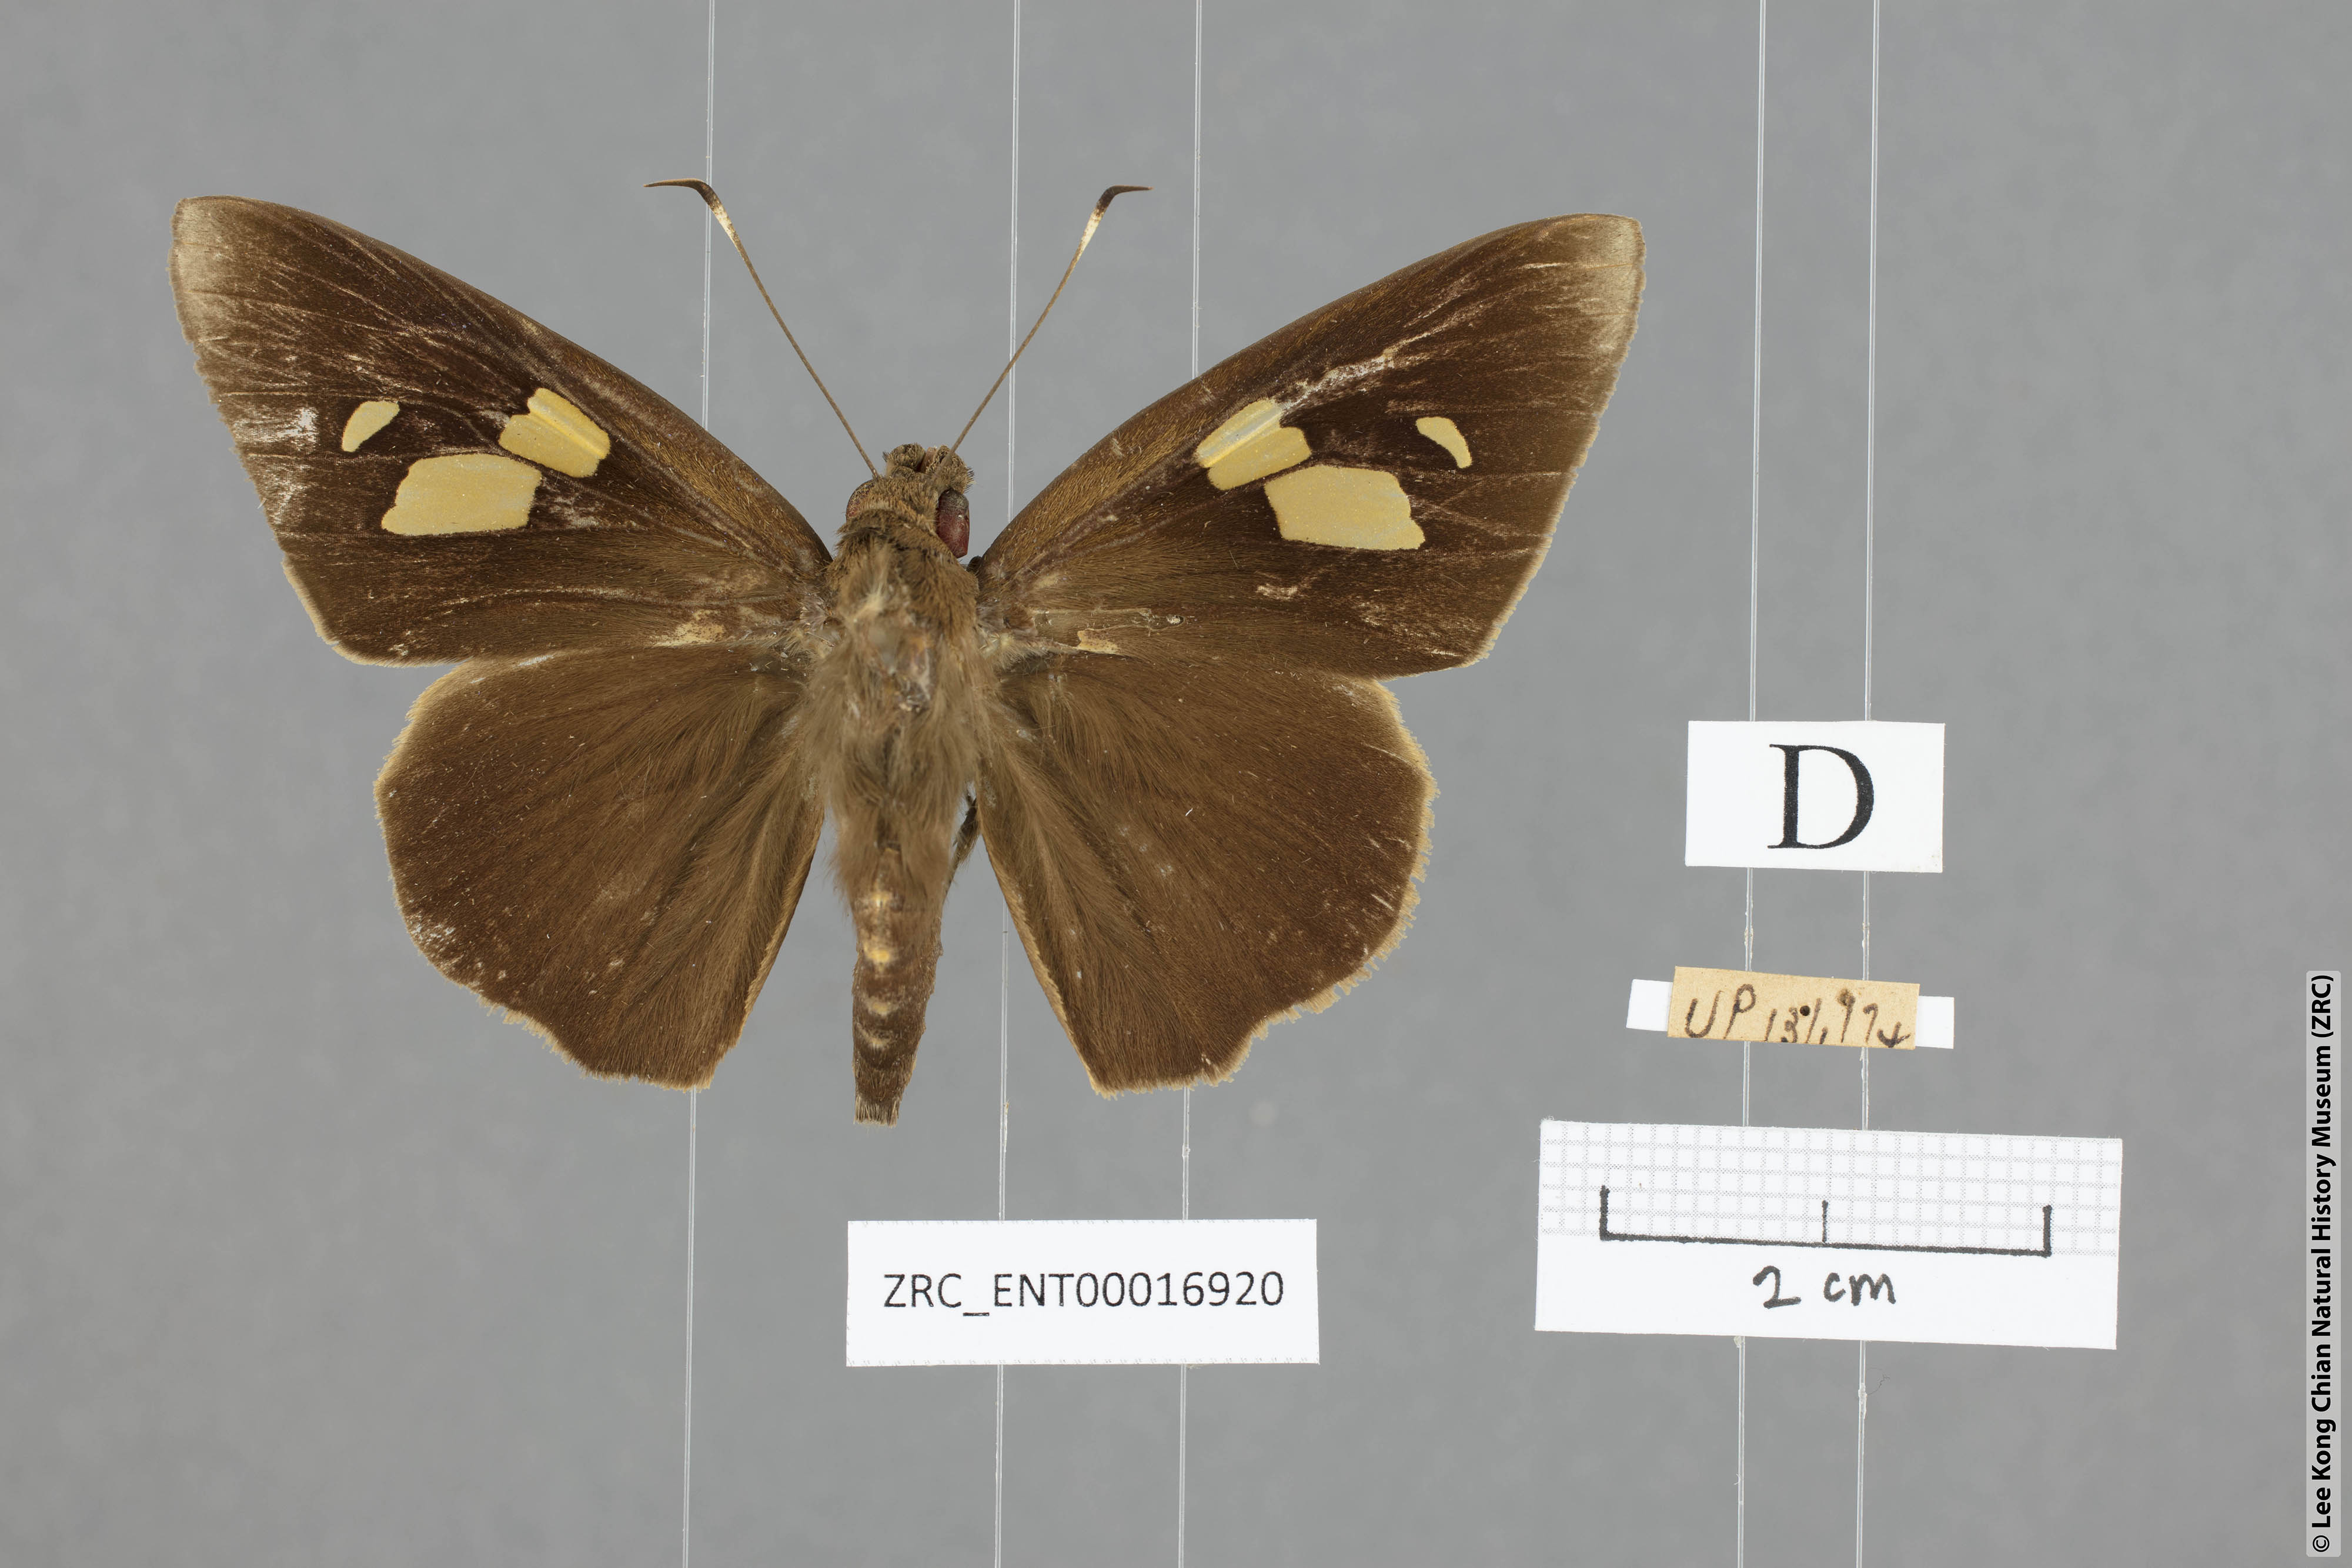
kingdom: Animalia
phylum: Arthropoda
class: Insecta
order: Lepidoptera
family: Hesperiidae
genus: Erionota
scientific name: Erionota thrax
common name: Banana skipper
